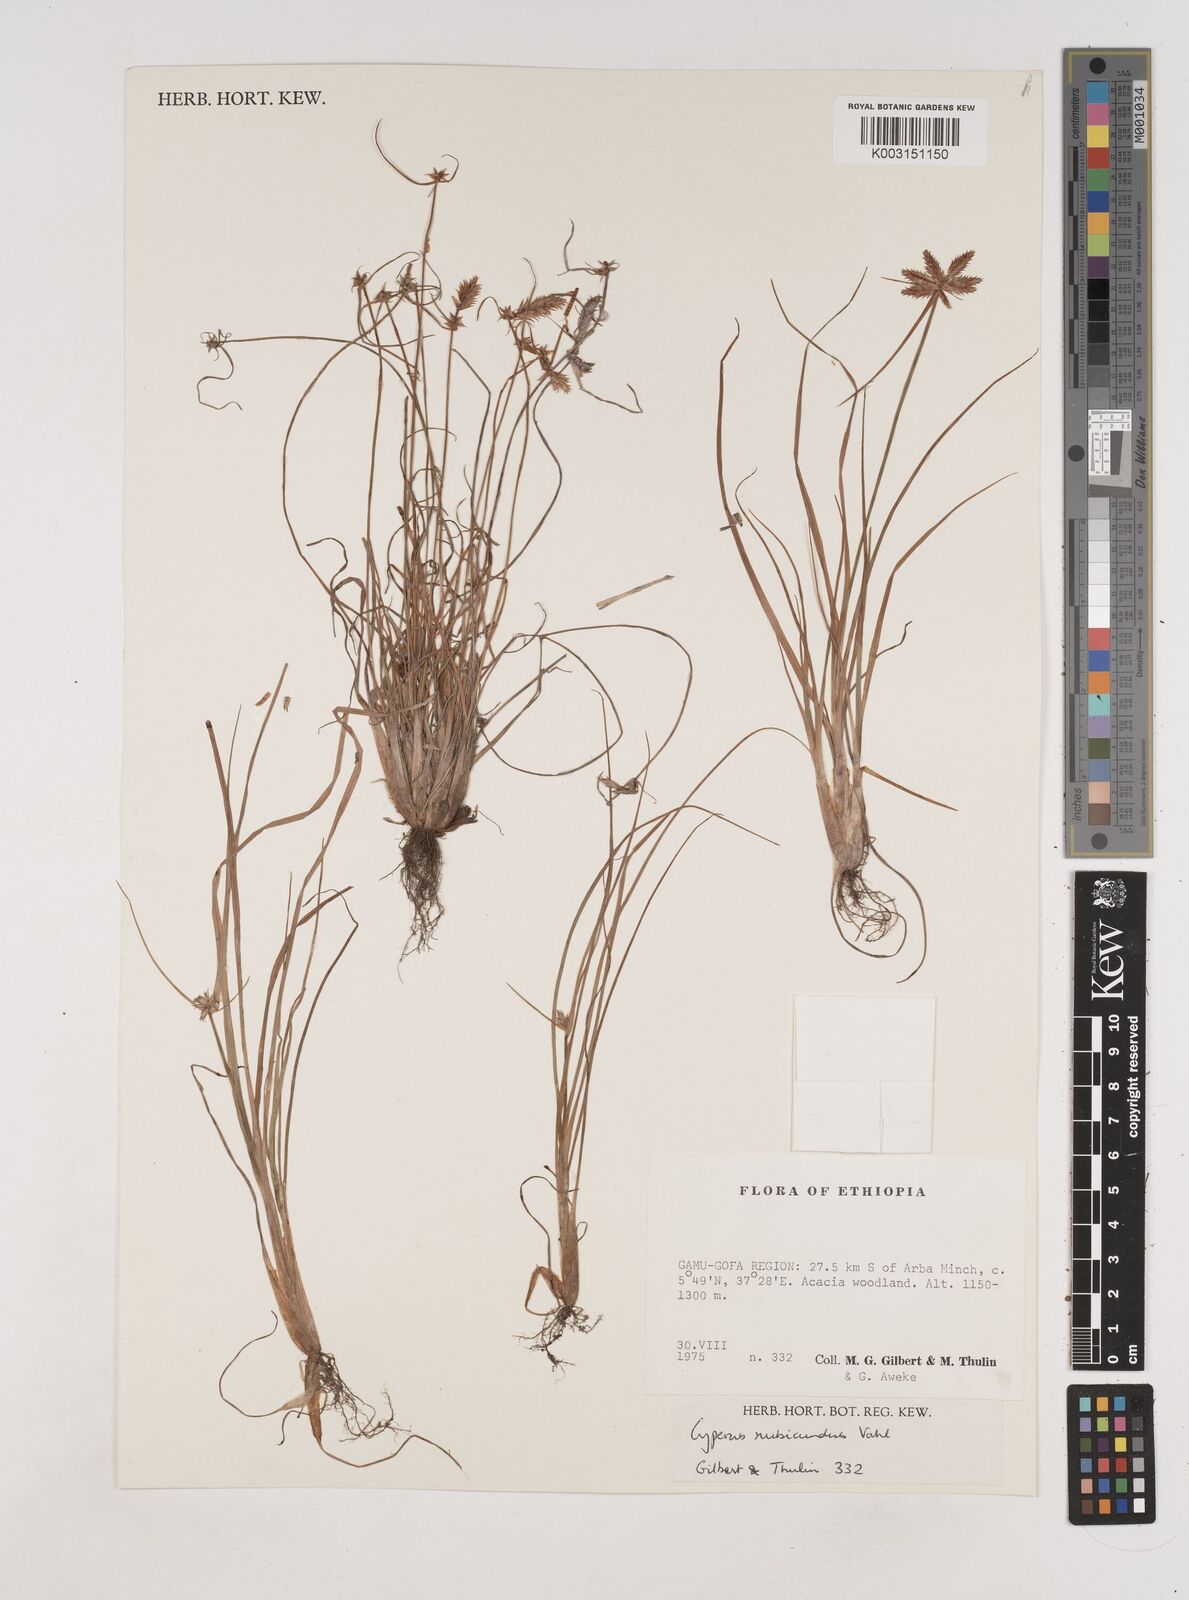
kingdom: Plantae
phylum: Tracheophyta
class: Liliopsida
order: Poales
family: Cyperaceae
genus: Cyperus
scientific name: Cyperus rubicundus
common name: Coco-grass
